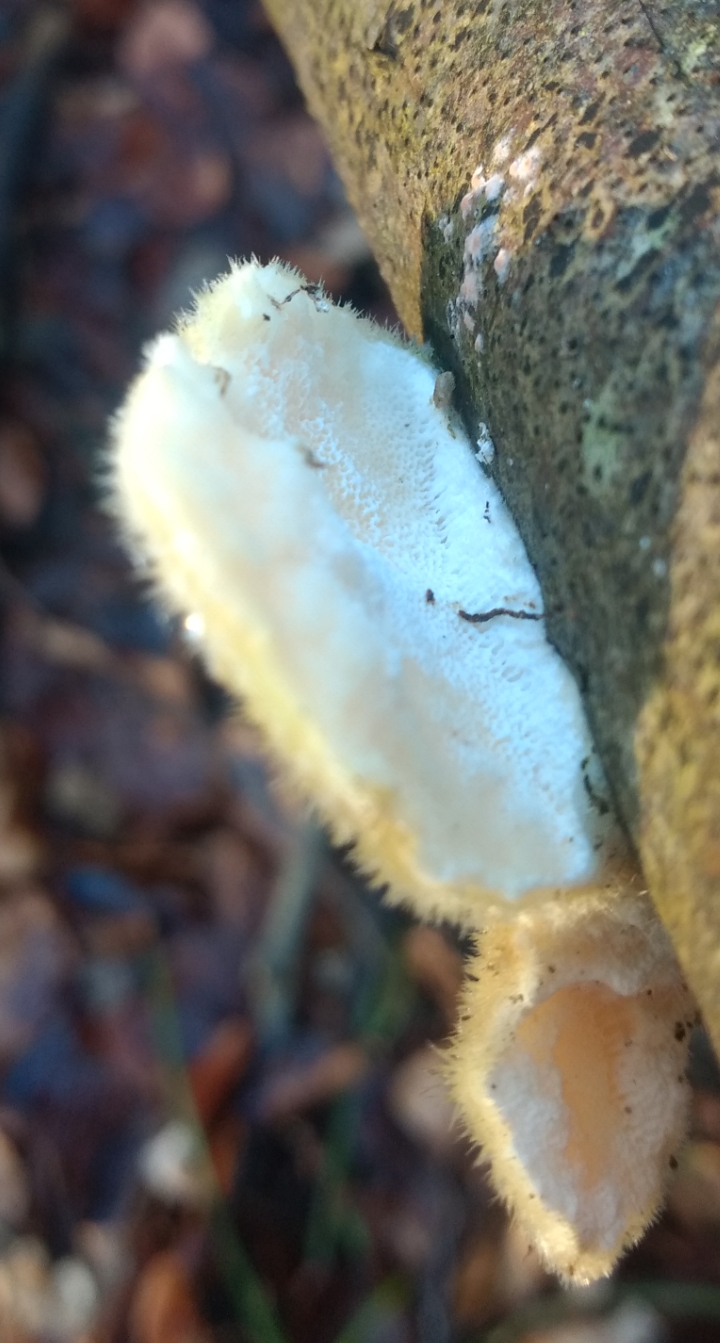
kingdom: Fungi
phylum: Basidiomycota
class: Agaricomycetes
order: Polyporales
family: Polyporaceae
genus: Trametes
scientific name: Trametes hirsuta
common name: håret læderporesvamp
